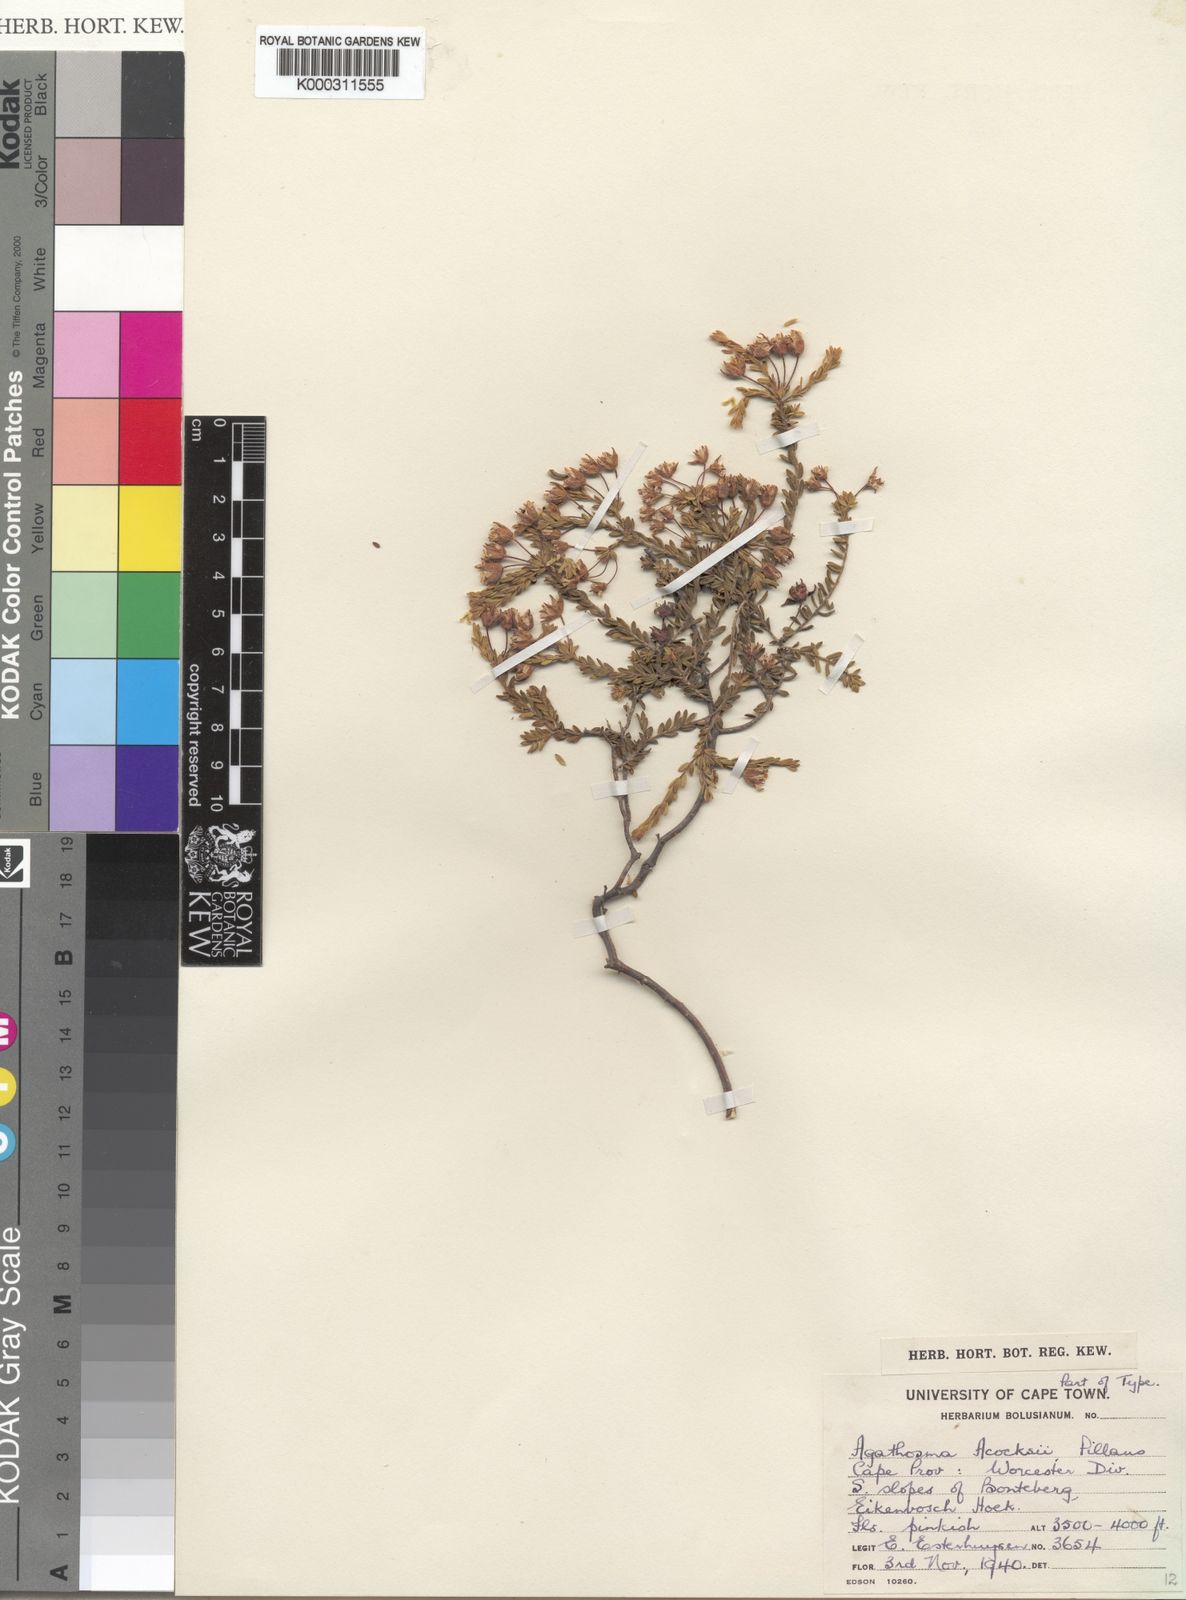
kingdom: Plantae
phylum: Tracheophyta
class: Magnoliopsida
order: Sapindales
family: Rutaceae
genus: Agathosma
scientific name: Agathosma acocksii
